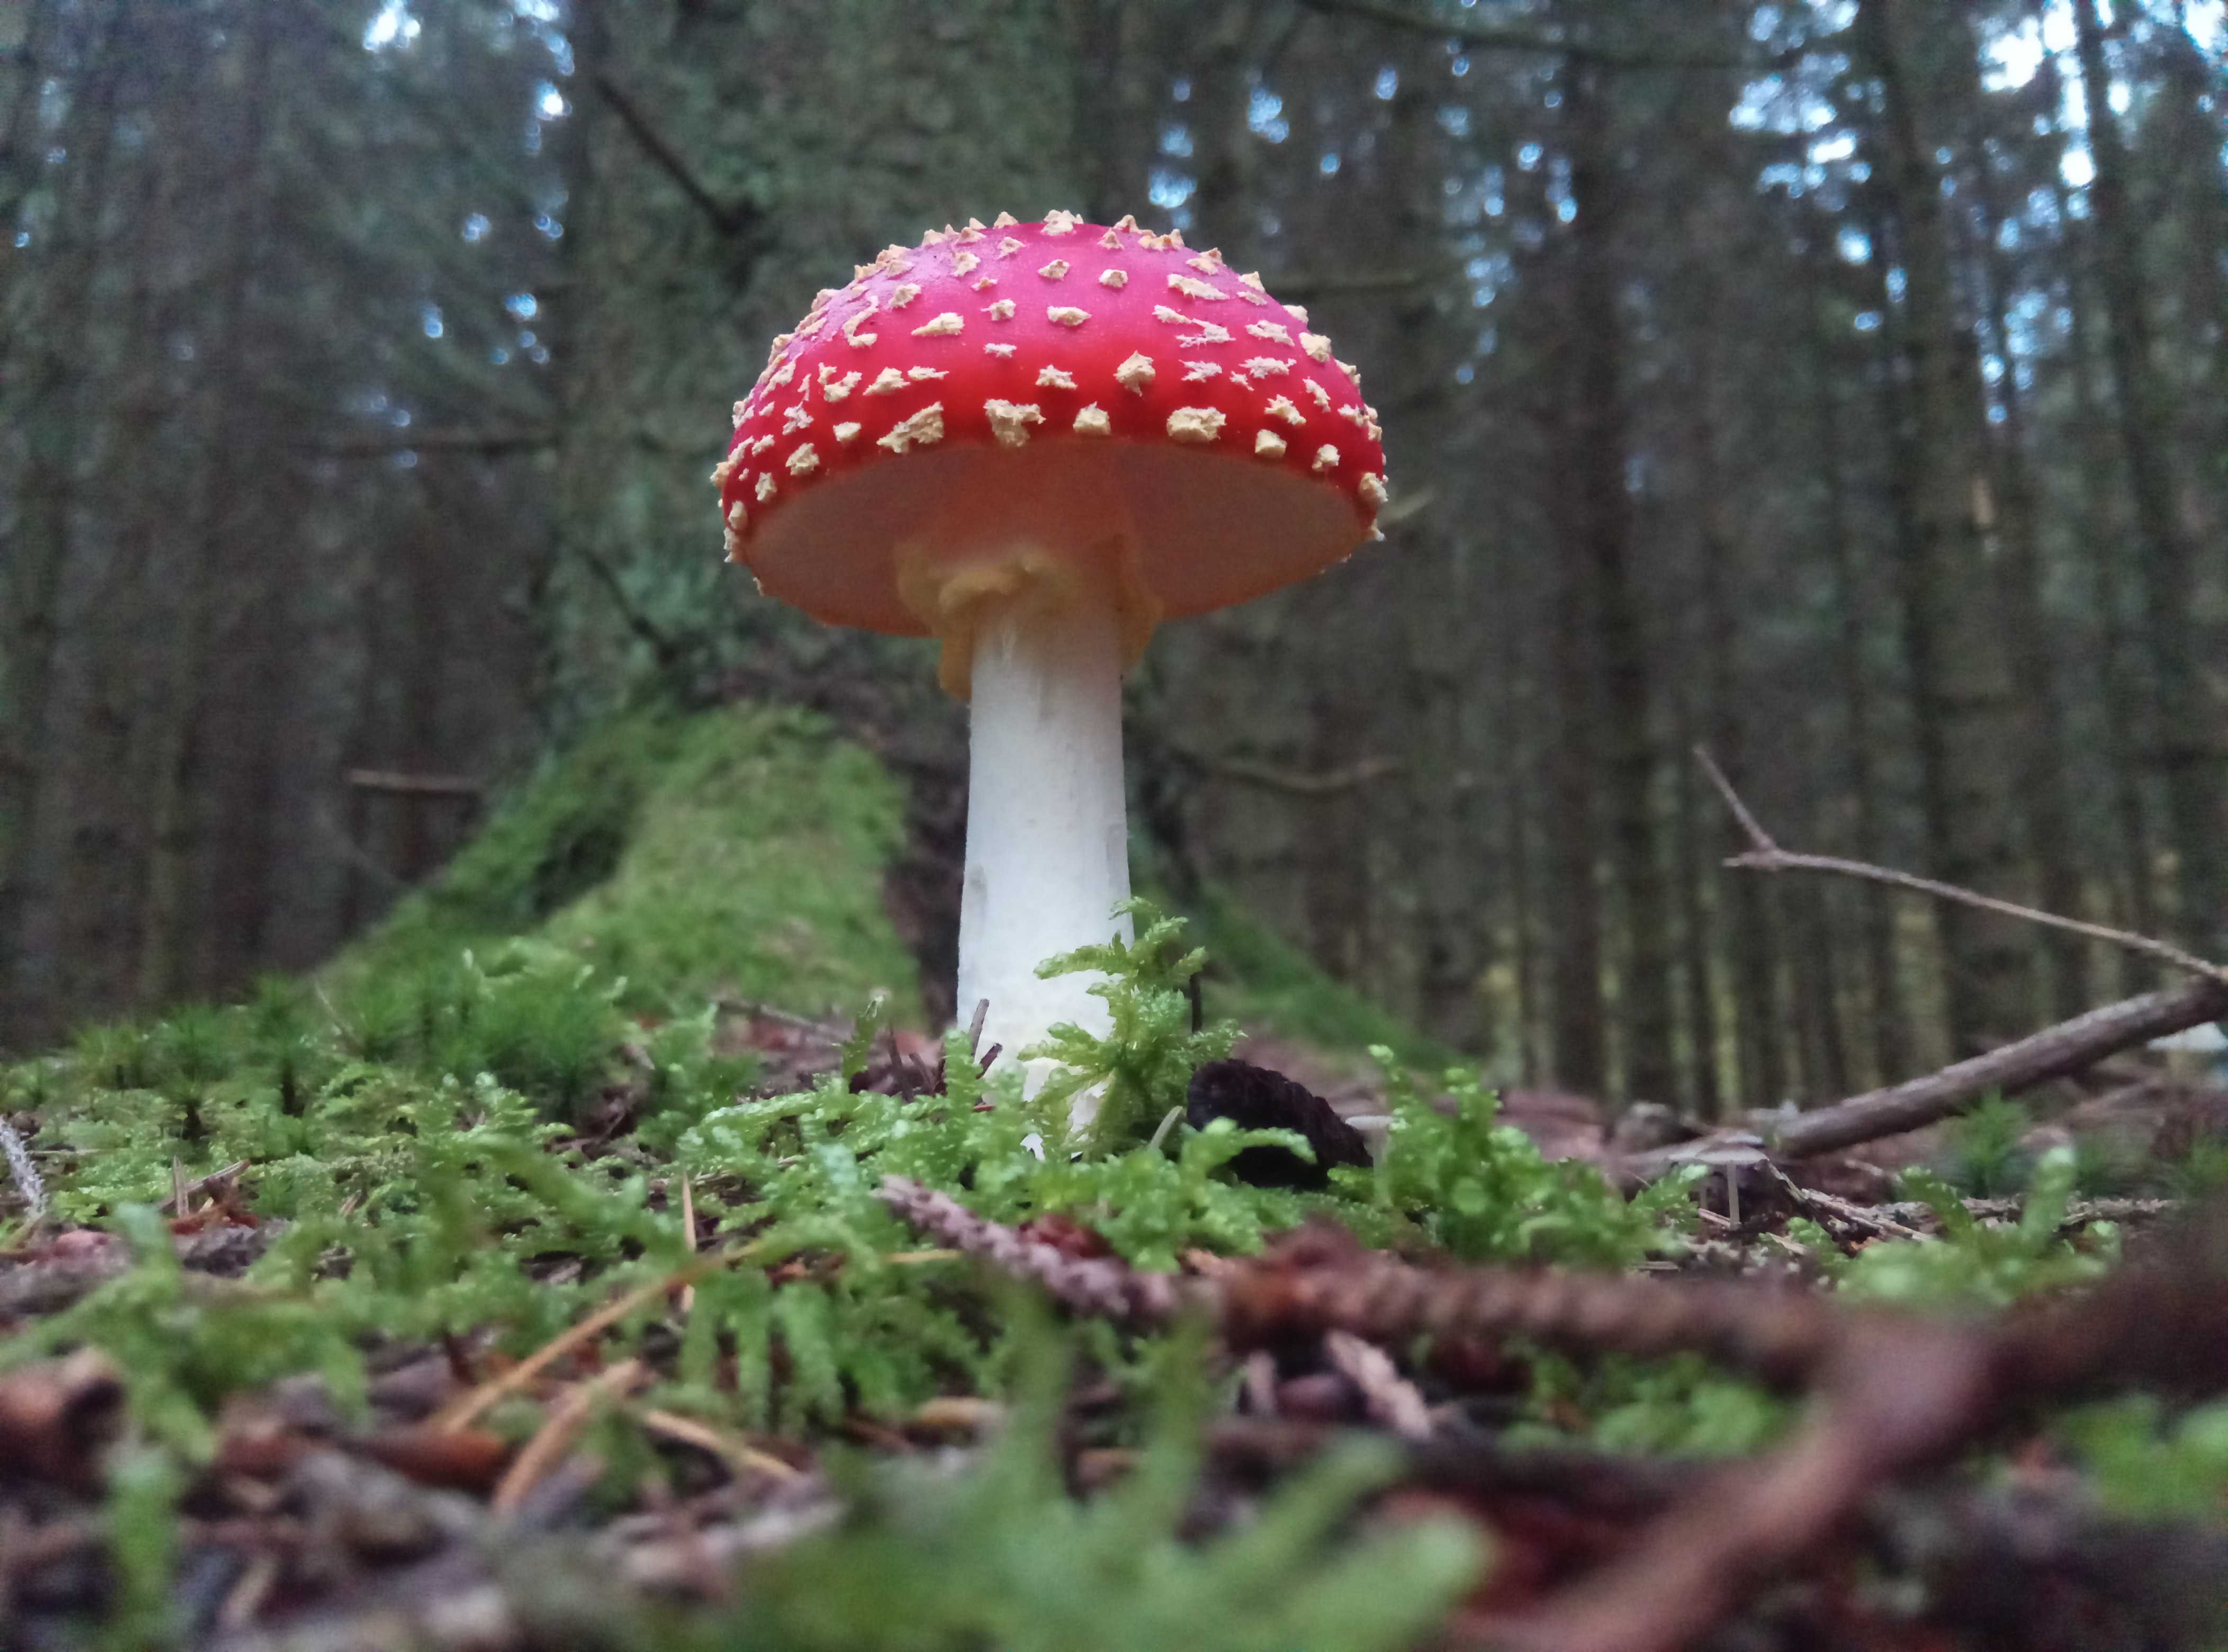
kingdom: Fungi
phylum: Basidiomycota
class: Agaricomycetes
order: Agaricales
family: Amanitaceae
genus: Amanita
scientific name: Amanita muscaria
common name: rød fluesvamp
